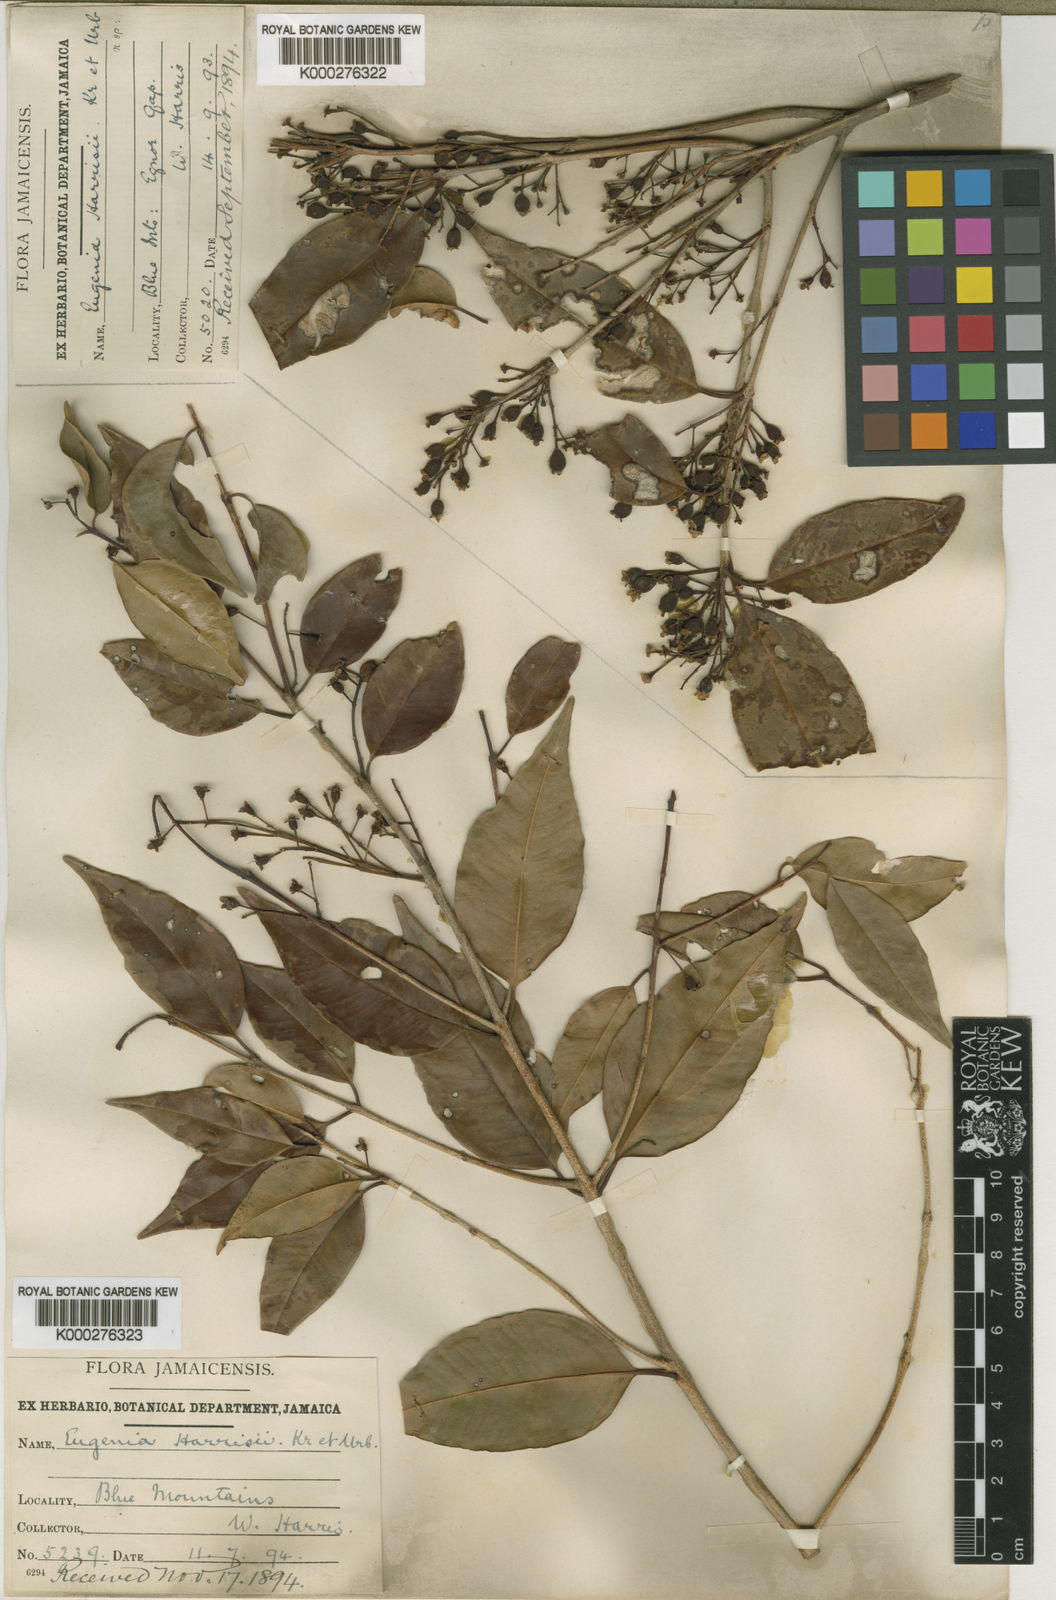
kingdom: Plantae
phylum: Tracheophyta
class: Magnoliopsida
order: Myrtales
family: Myrtaceae
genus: Eugenia
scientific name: Eugenia harrisii
